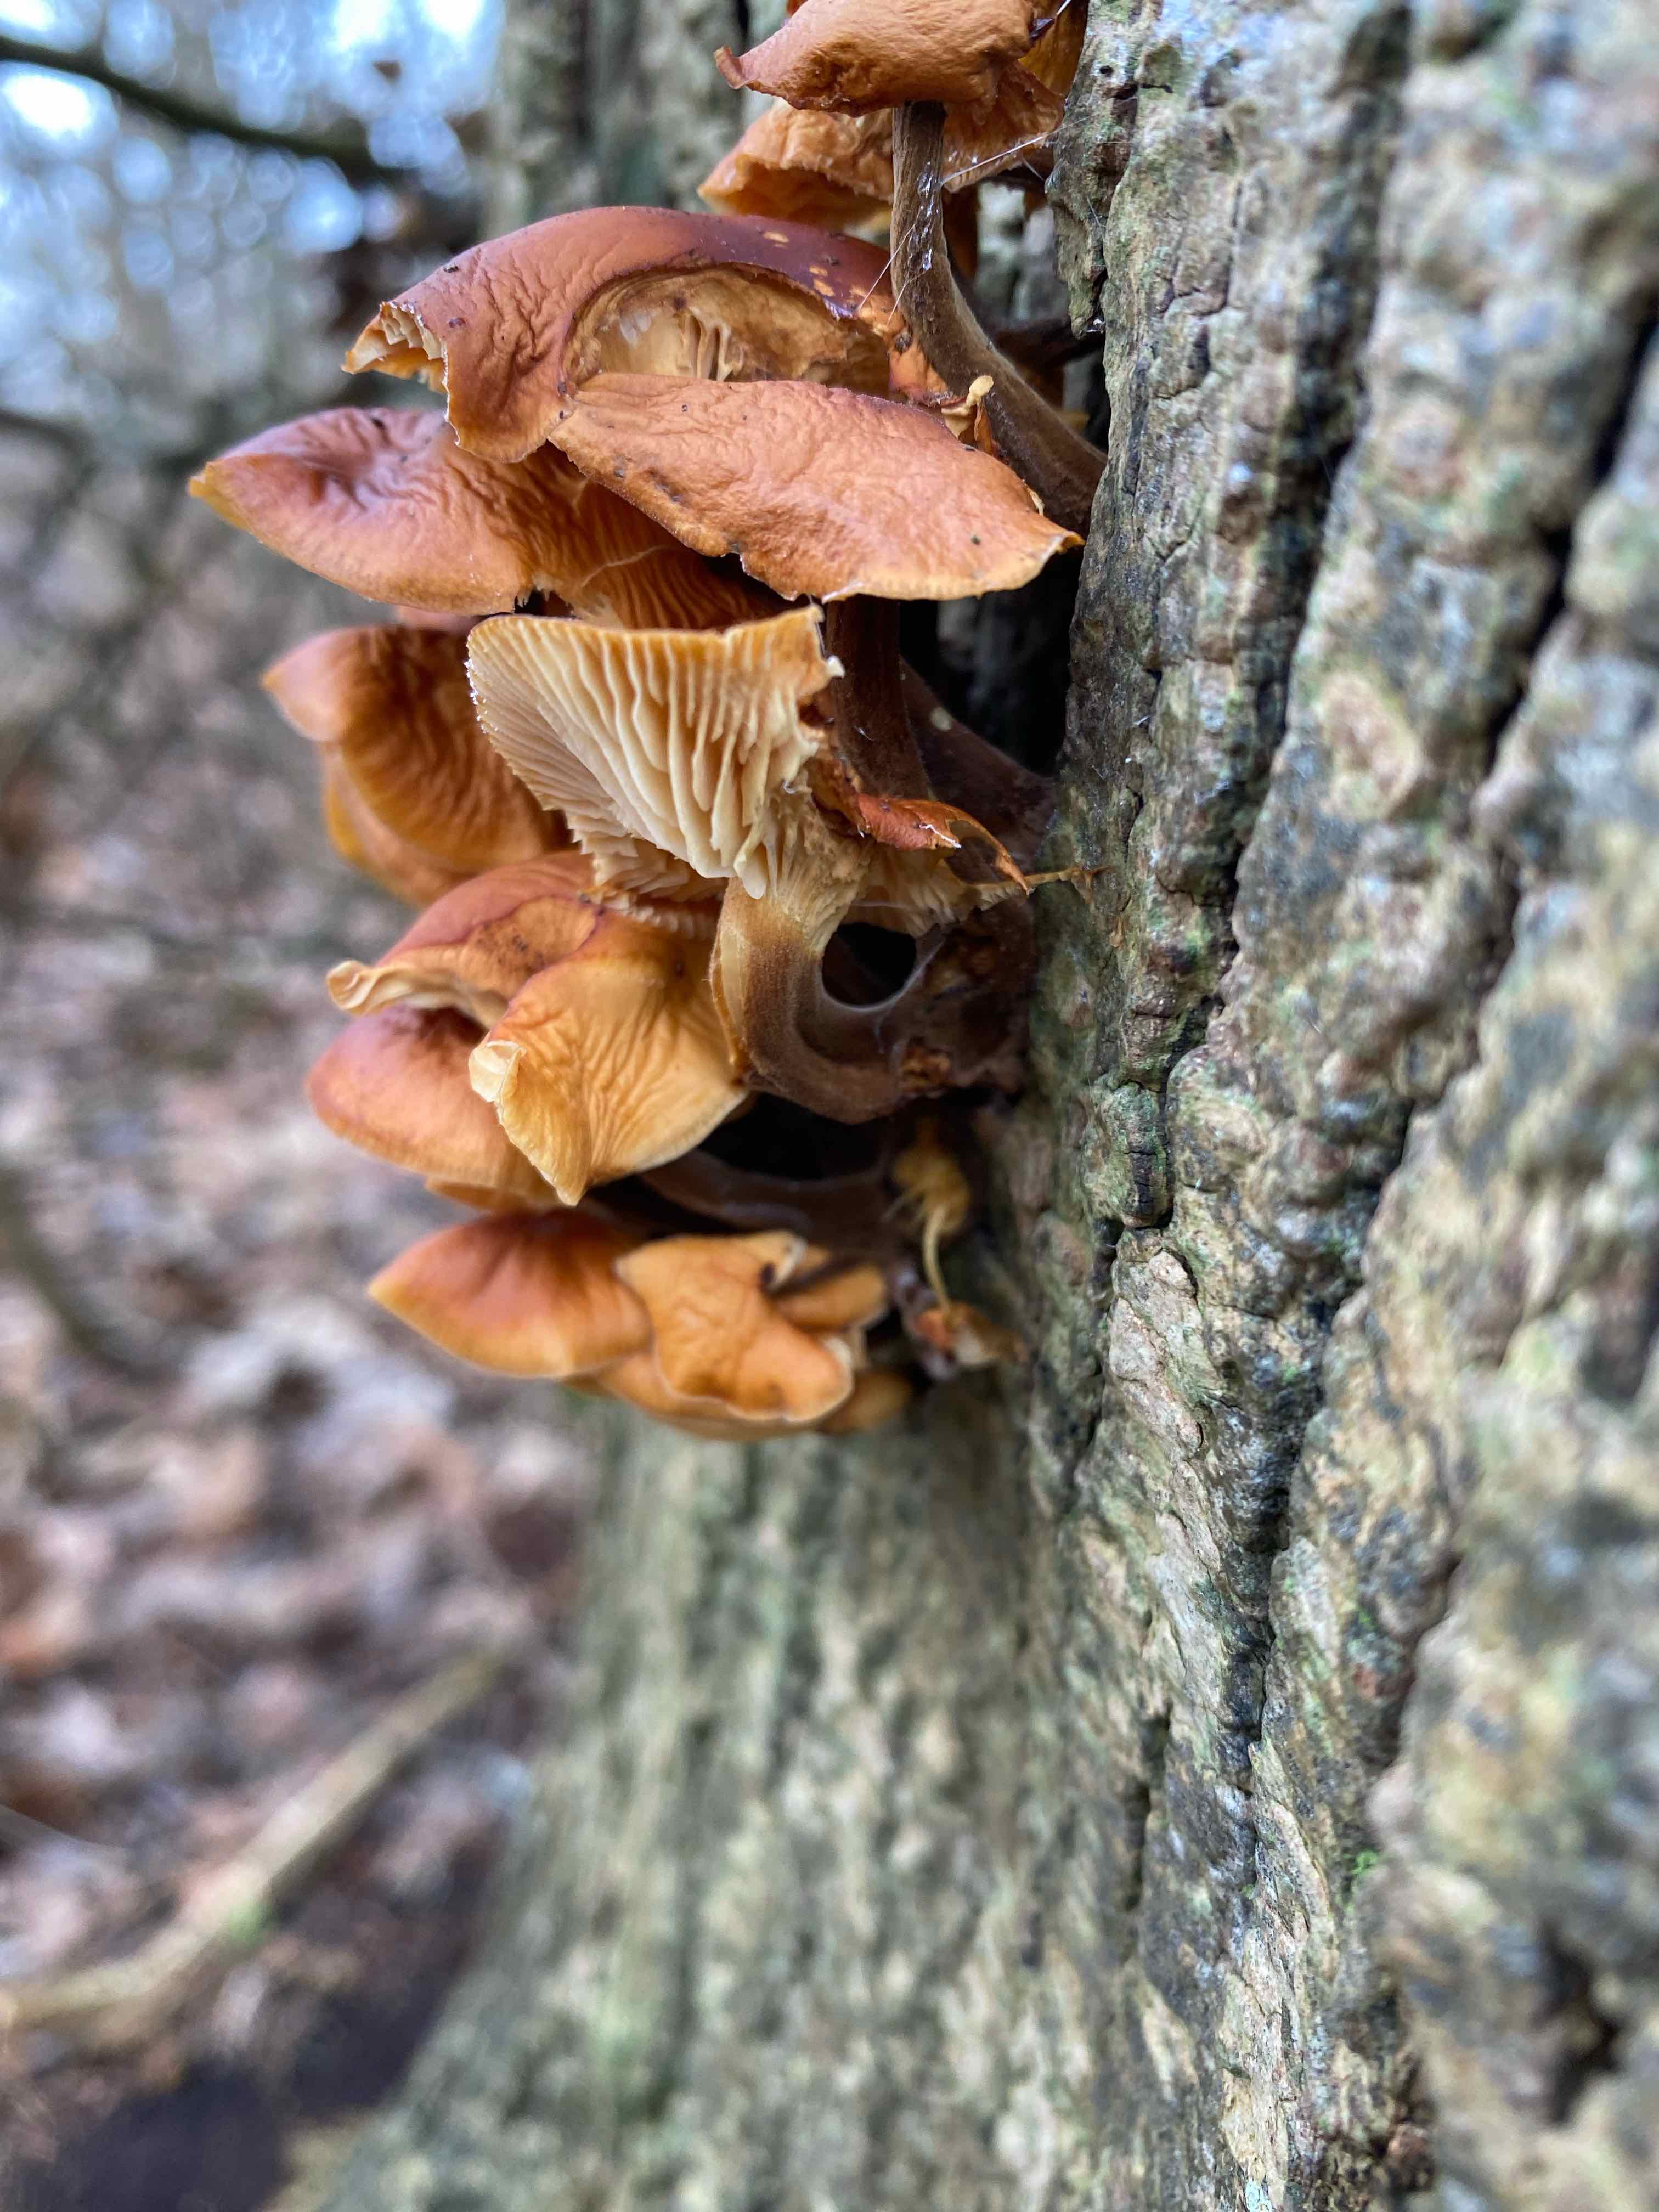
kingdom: Fungi
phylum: Basidiomycota
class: Agaricomycetes
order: Agaricales
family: Physalacriaceae
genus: Flammulina
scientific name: Flammulina
